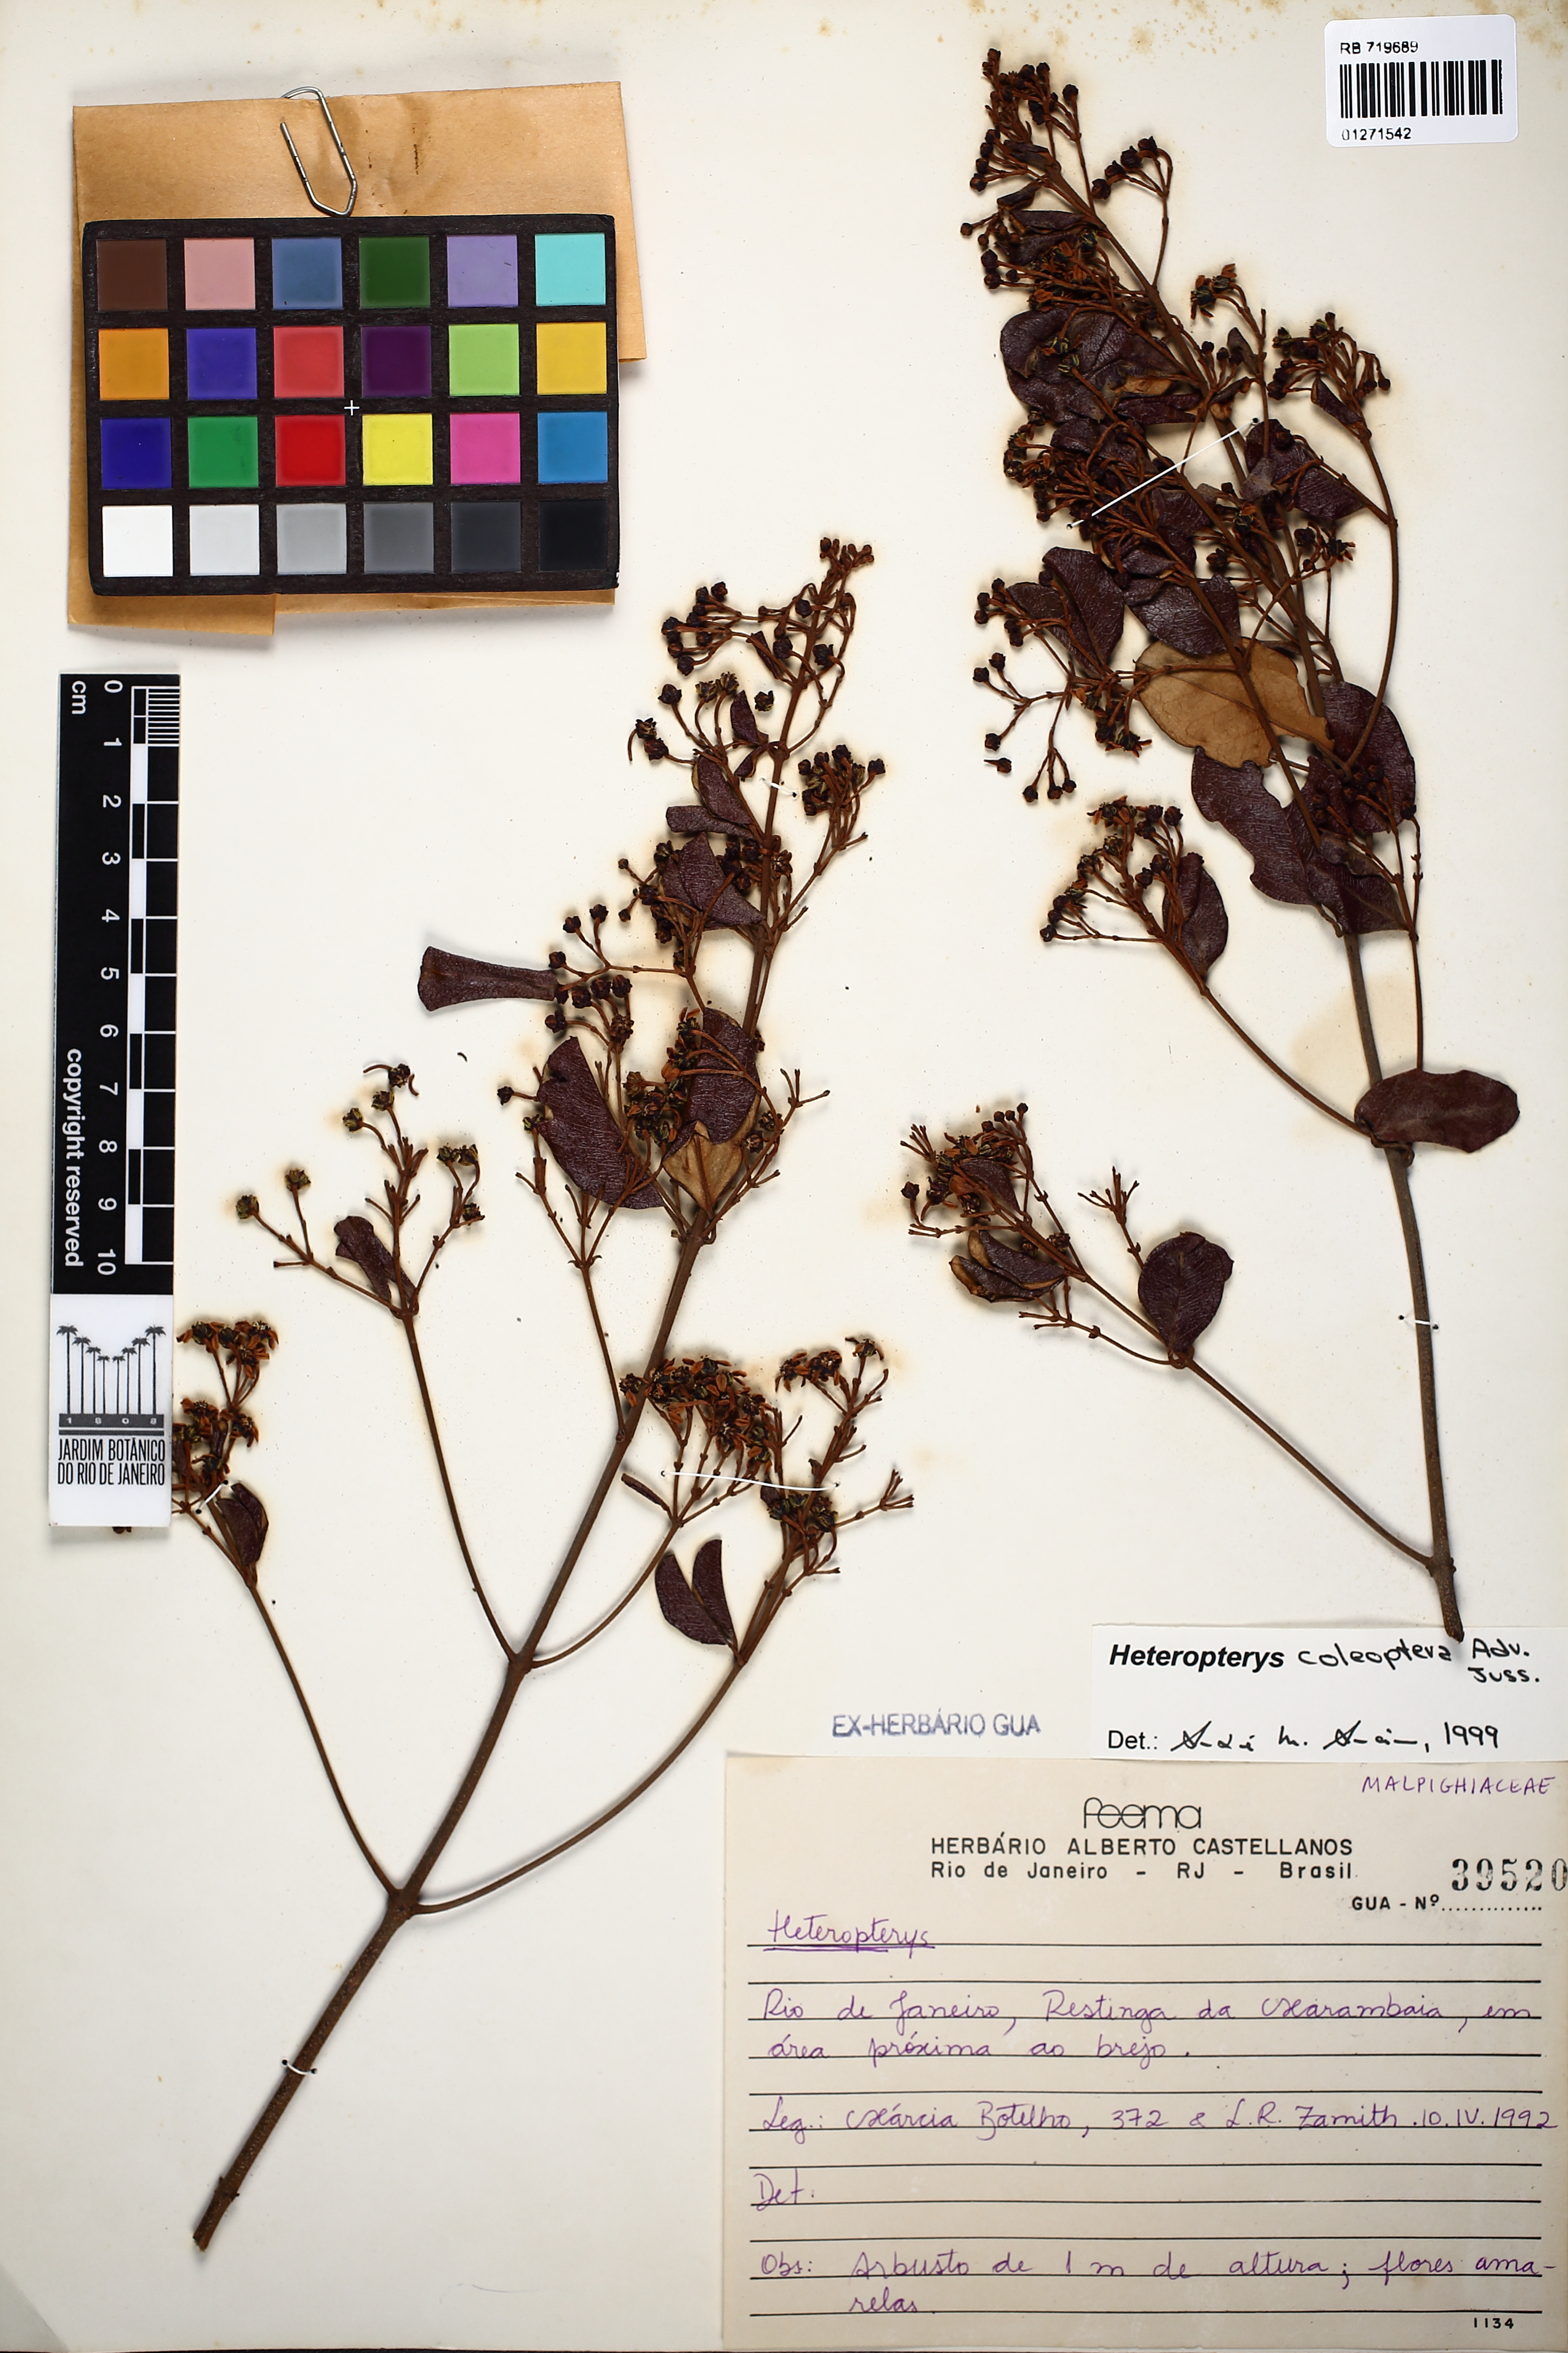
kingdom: Plantae
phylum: Tracheophyta
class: Magnoliopsida
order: Malpighiales
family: Malpighiaceae
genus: Heteropterys
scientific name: Heteropterys coleoptera
